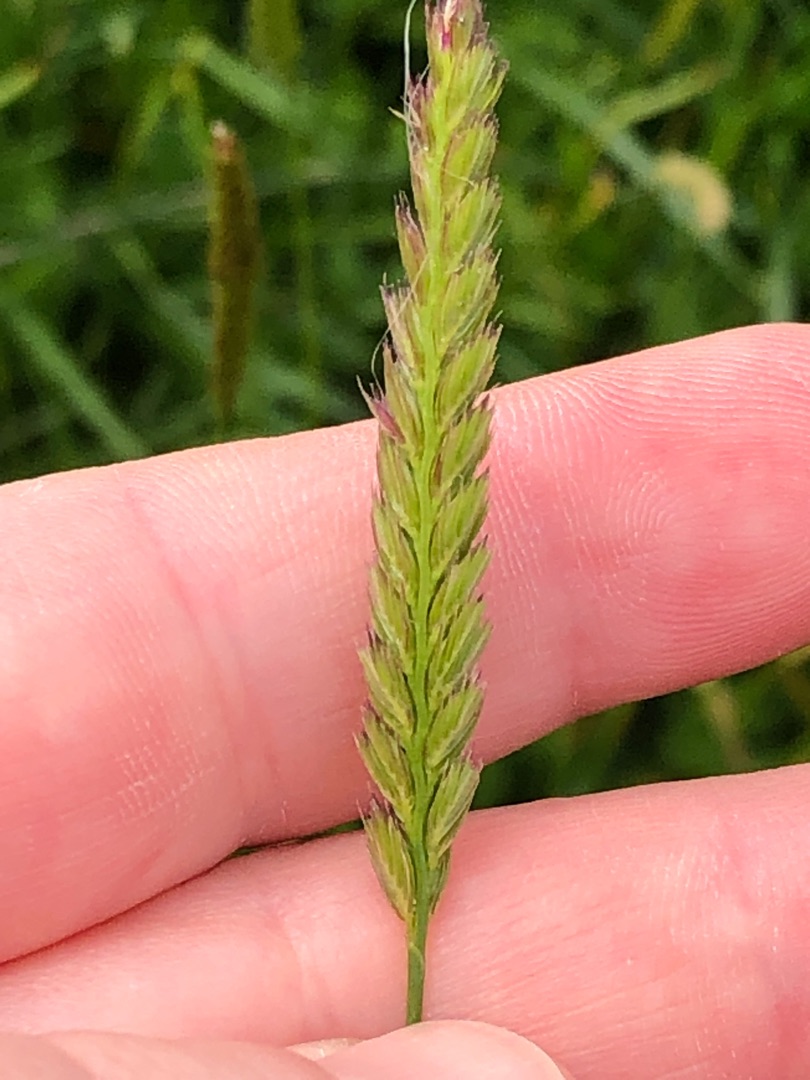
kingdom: Plantae
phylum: Tracheophyta
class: Liliopsida
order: Poales
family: Poaceae
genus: Cynosurus
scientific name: Cynosurus cristatus
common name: Kamgræs
